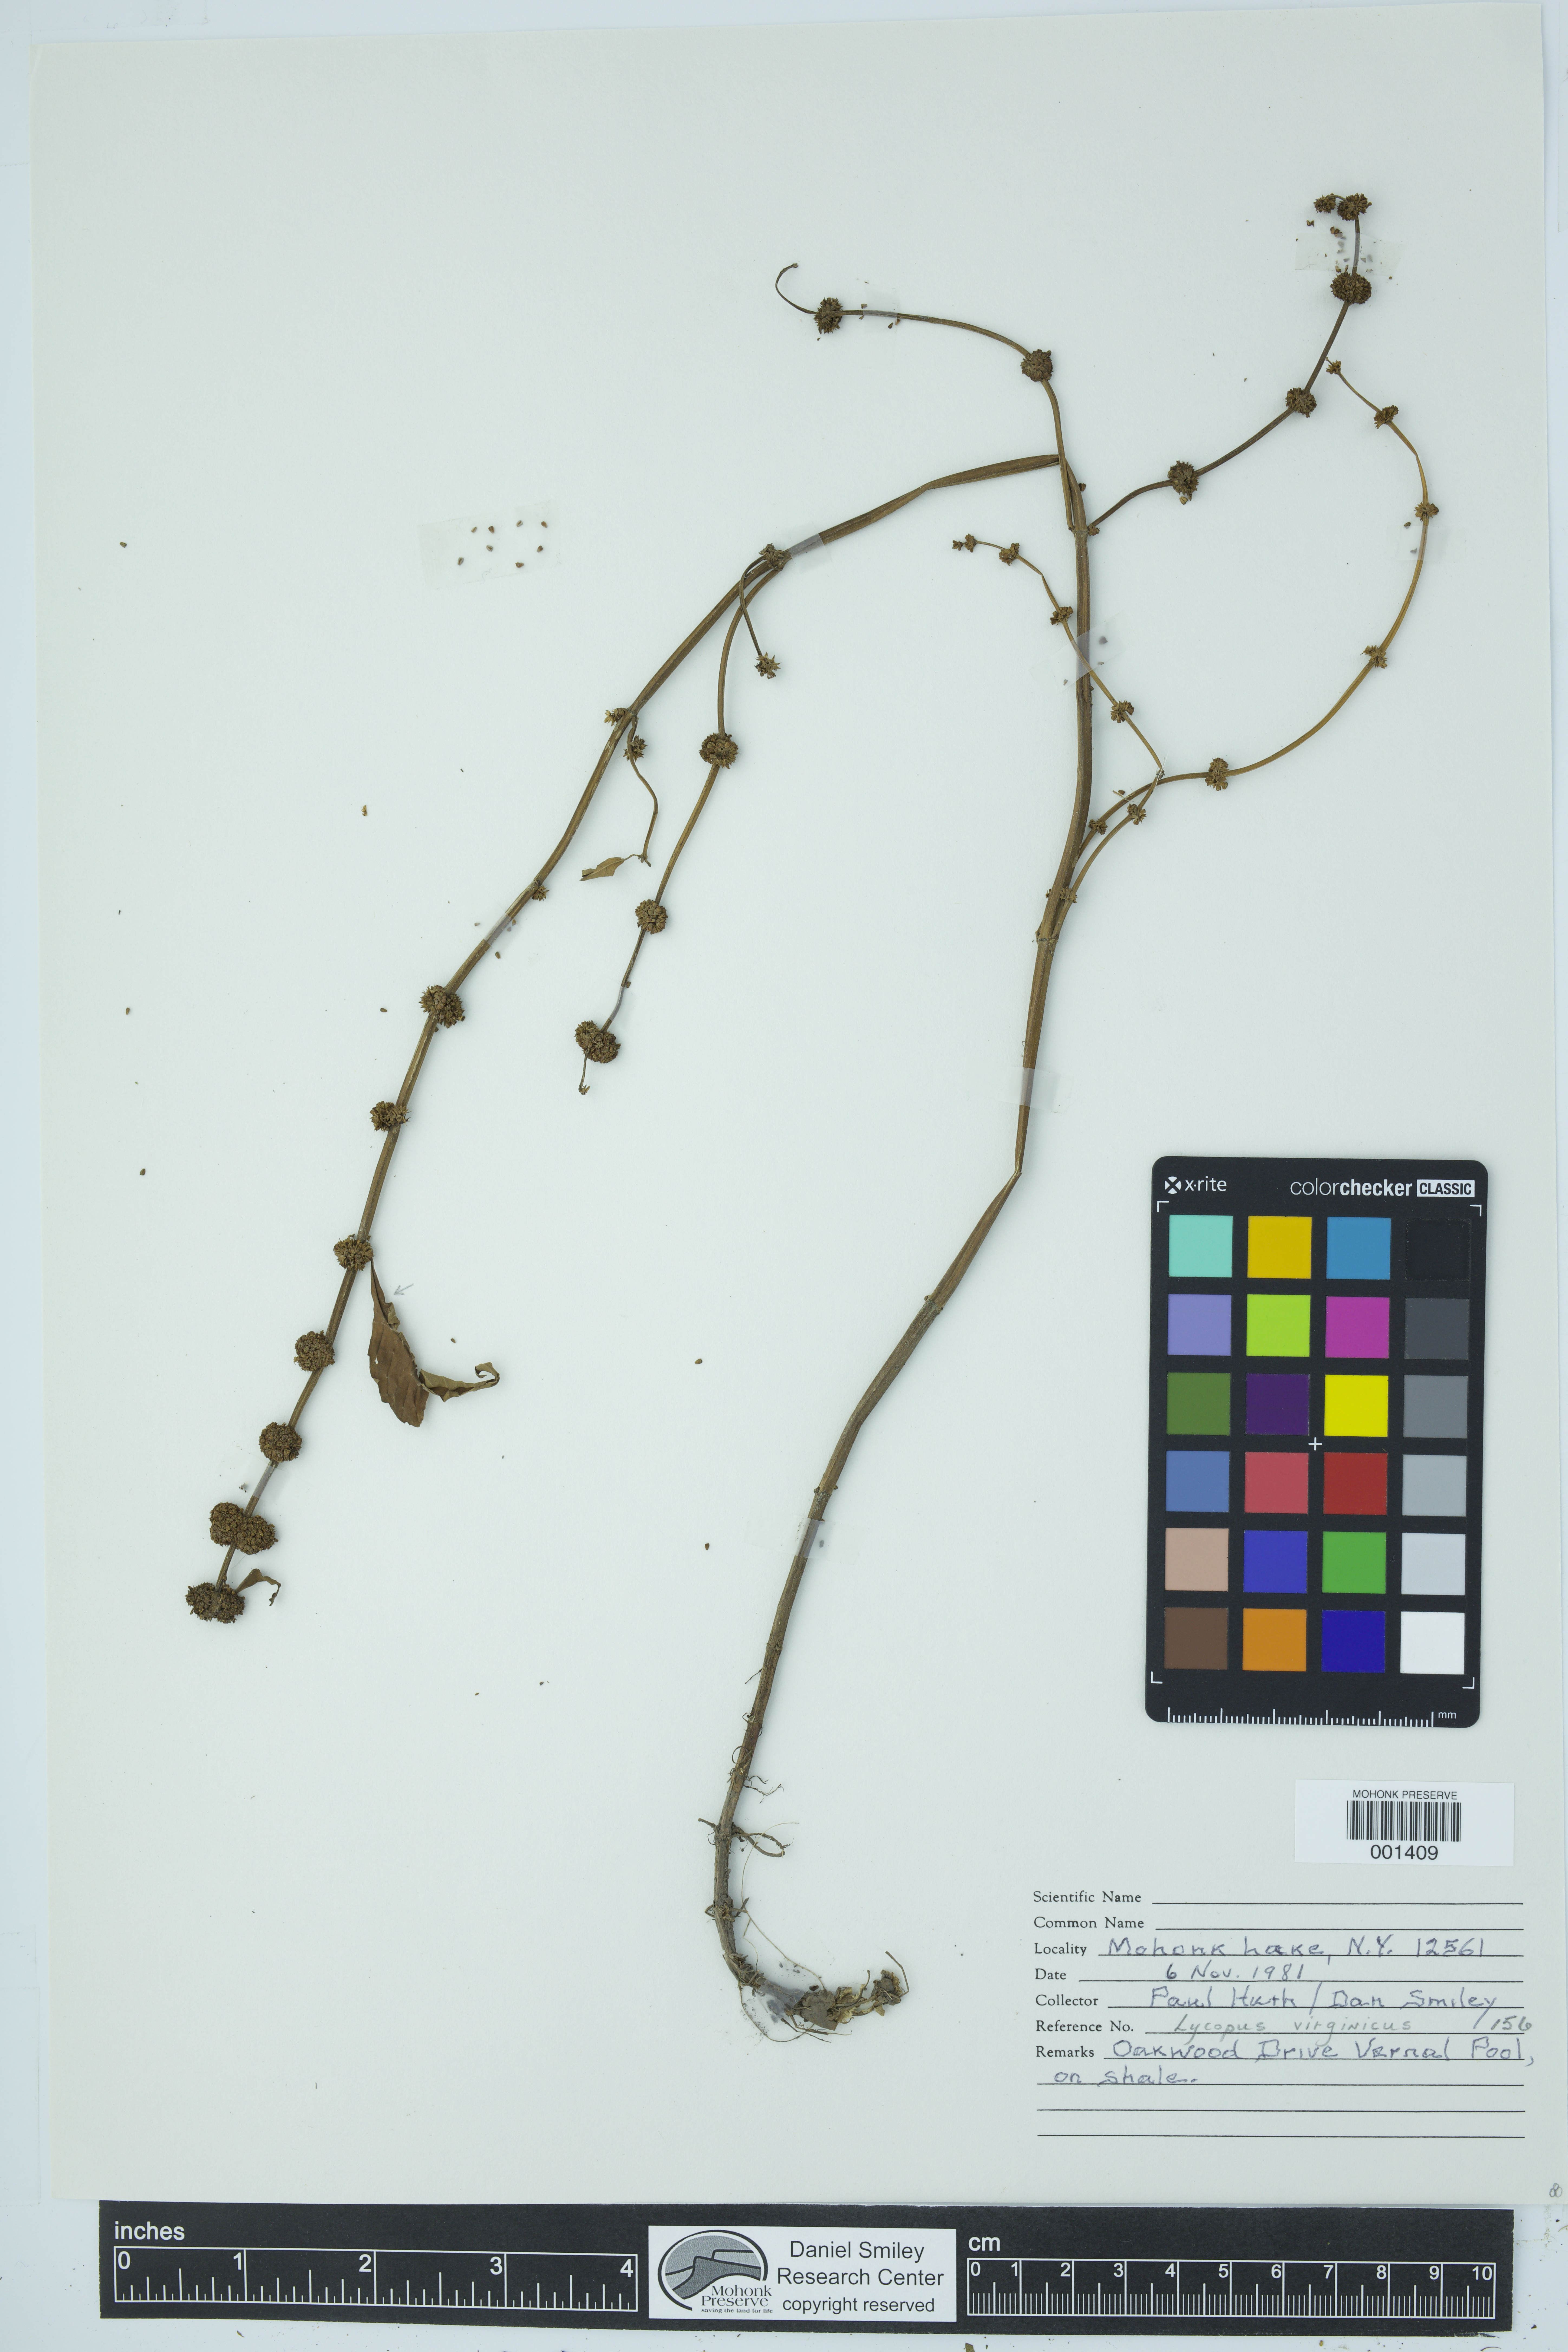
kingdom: Plantae
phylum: Tracheophyta
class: Magnoliopsida
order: Lamiales
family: Lamiaceae
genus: Lycopus
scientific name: Lycopus virginicus
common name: Bugleweed
